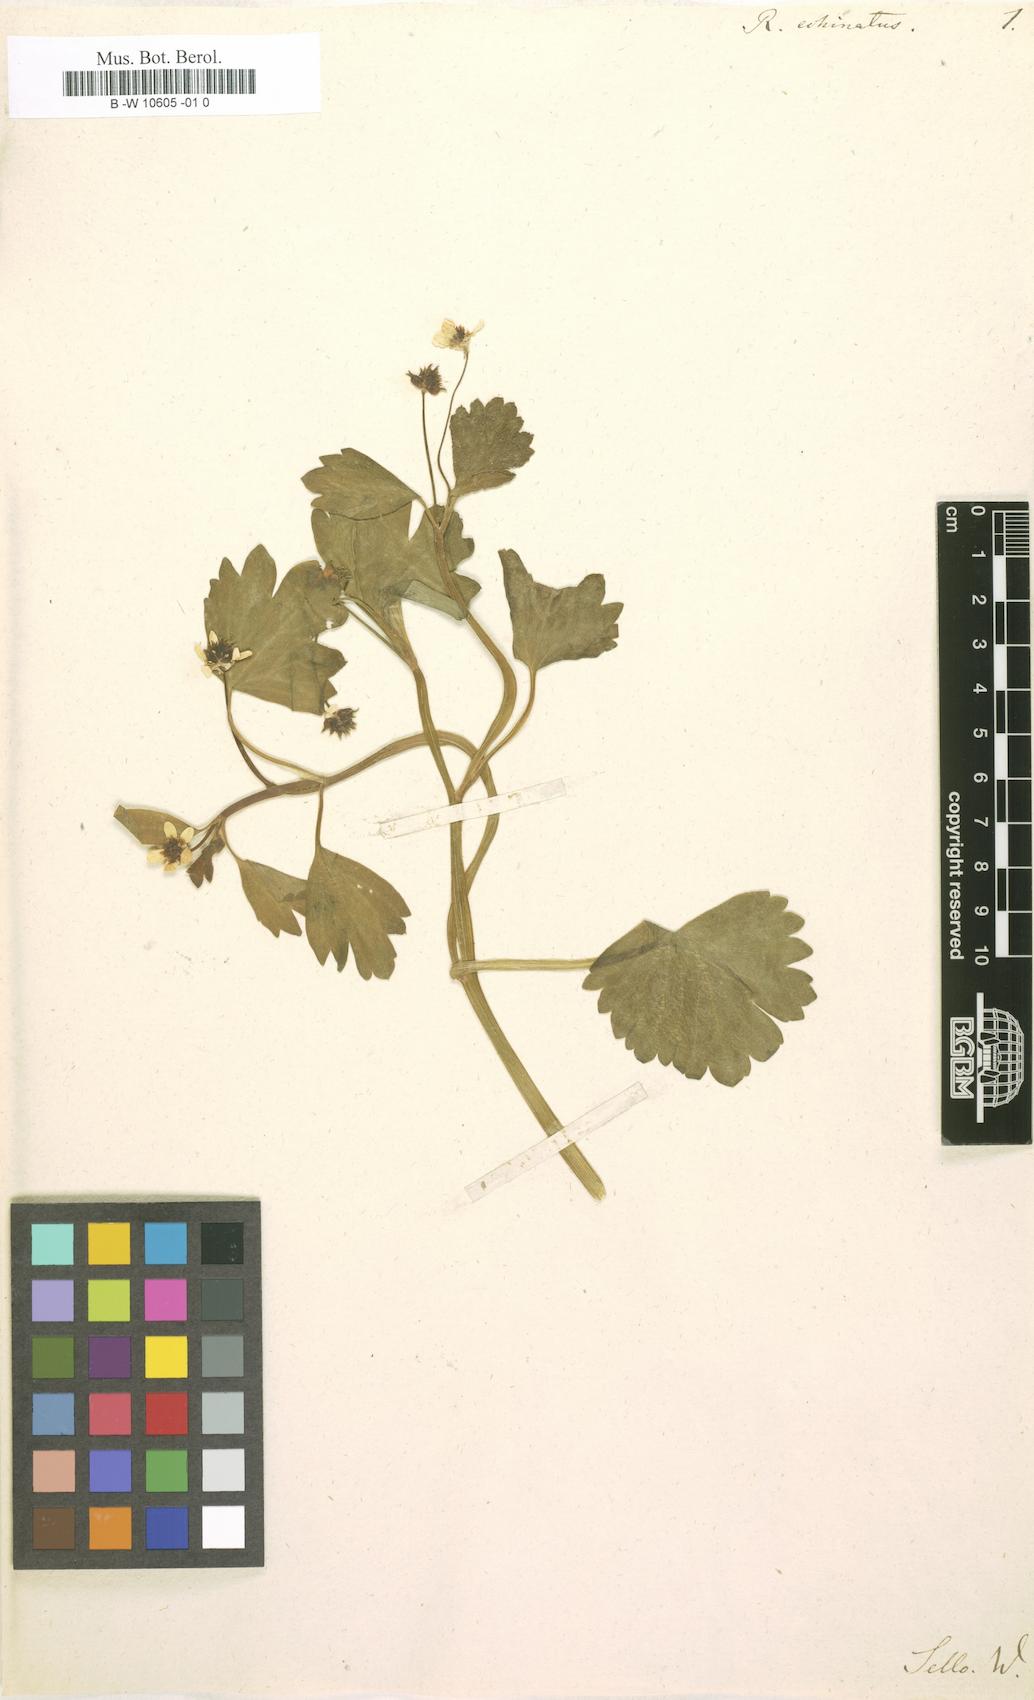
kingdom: Plantae
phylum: Tracheophyta
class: Magnoliopsida
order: Ranunculales
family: Ranunculaceae
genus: Ranunculus
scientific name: Ranunculus
